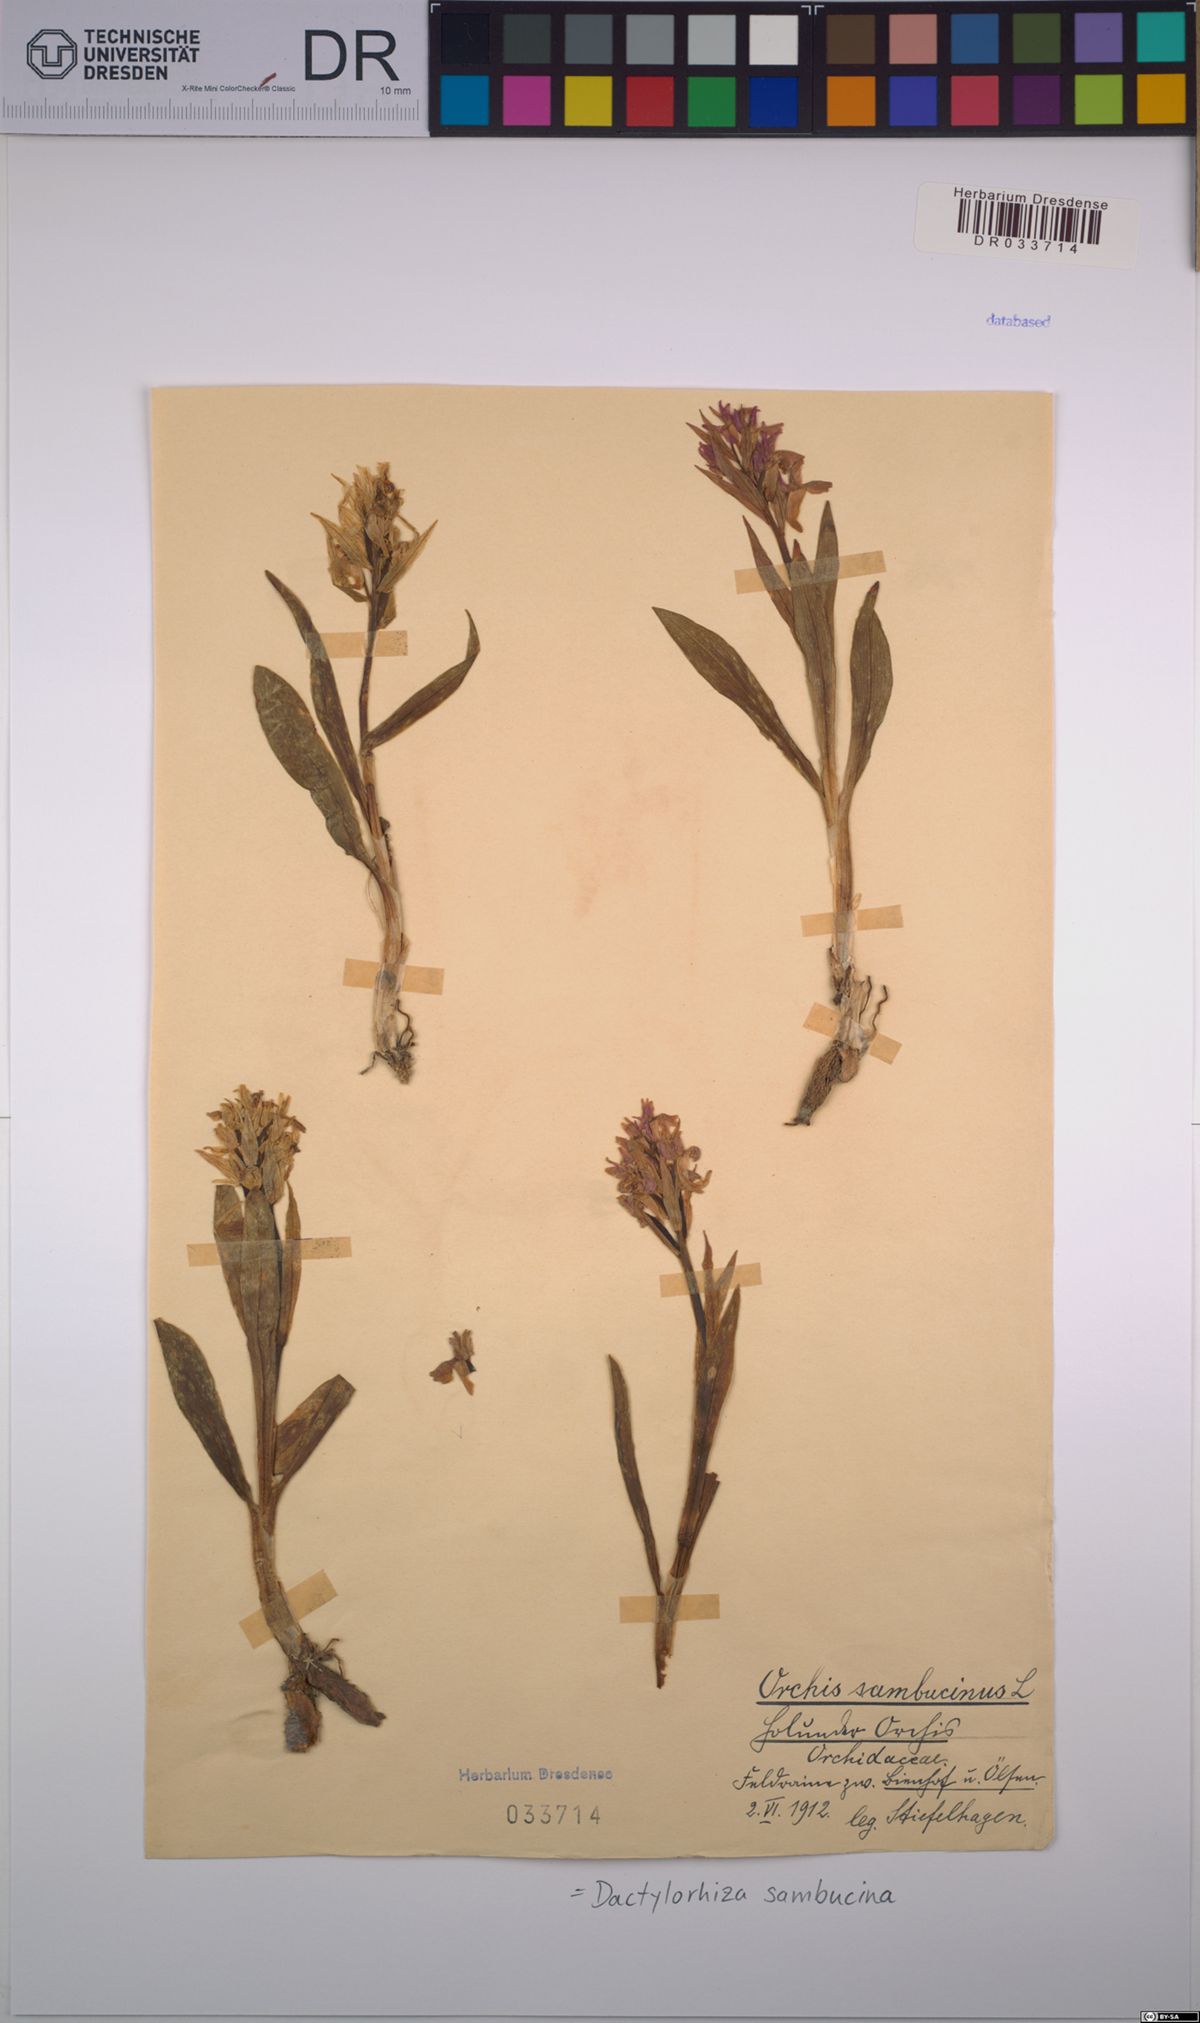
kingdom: Plantae
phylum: Tracheophyta
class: Liliopsida
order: Asparagales
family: Orchidaceae
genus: Dactylorhiza
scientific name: Dactylorhiza sambucina
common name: Elder-flowered orchid
